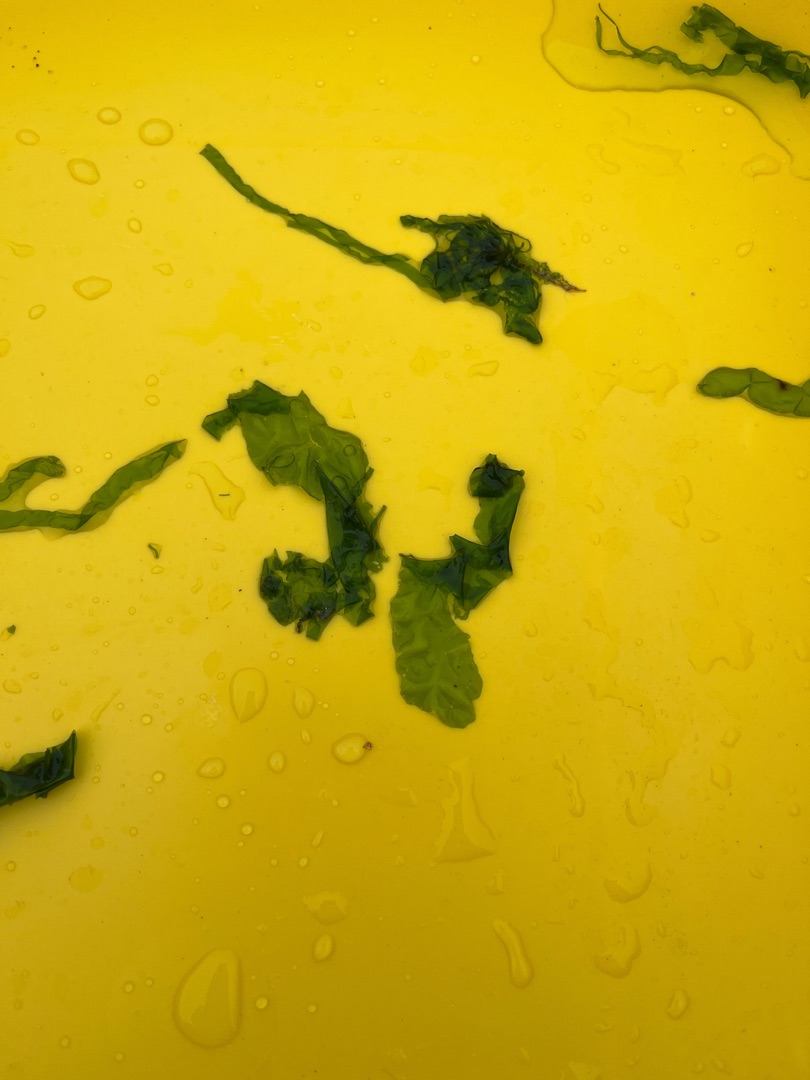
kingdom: Plantae
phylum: Chlorophyta
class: Ulvophyceae
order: Ulvales
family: Ulvaceae
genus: Ulva
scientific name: Ulva
